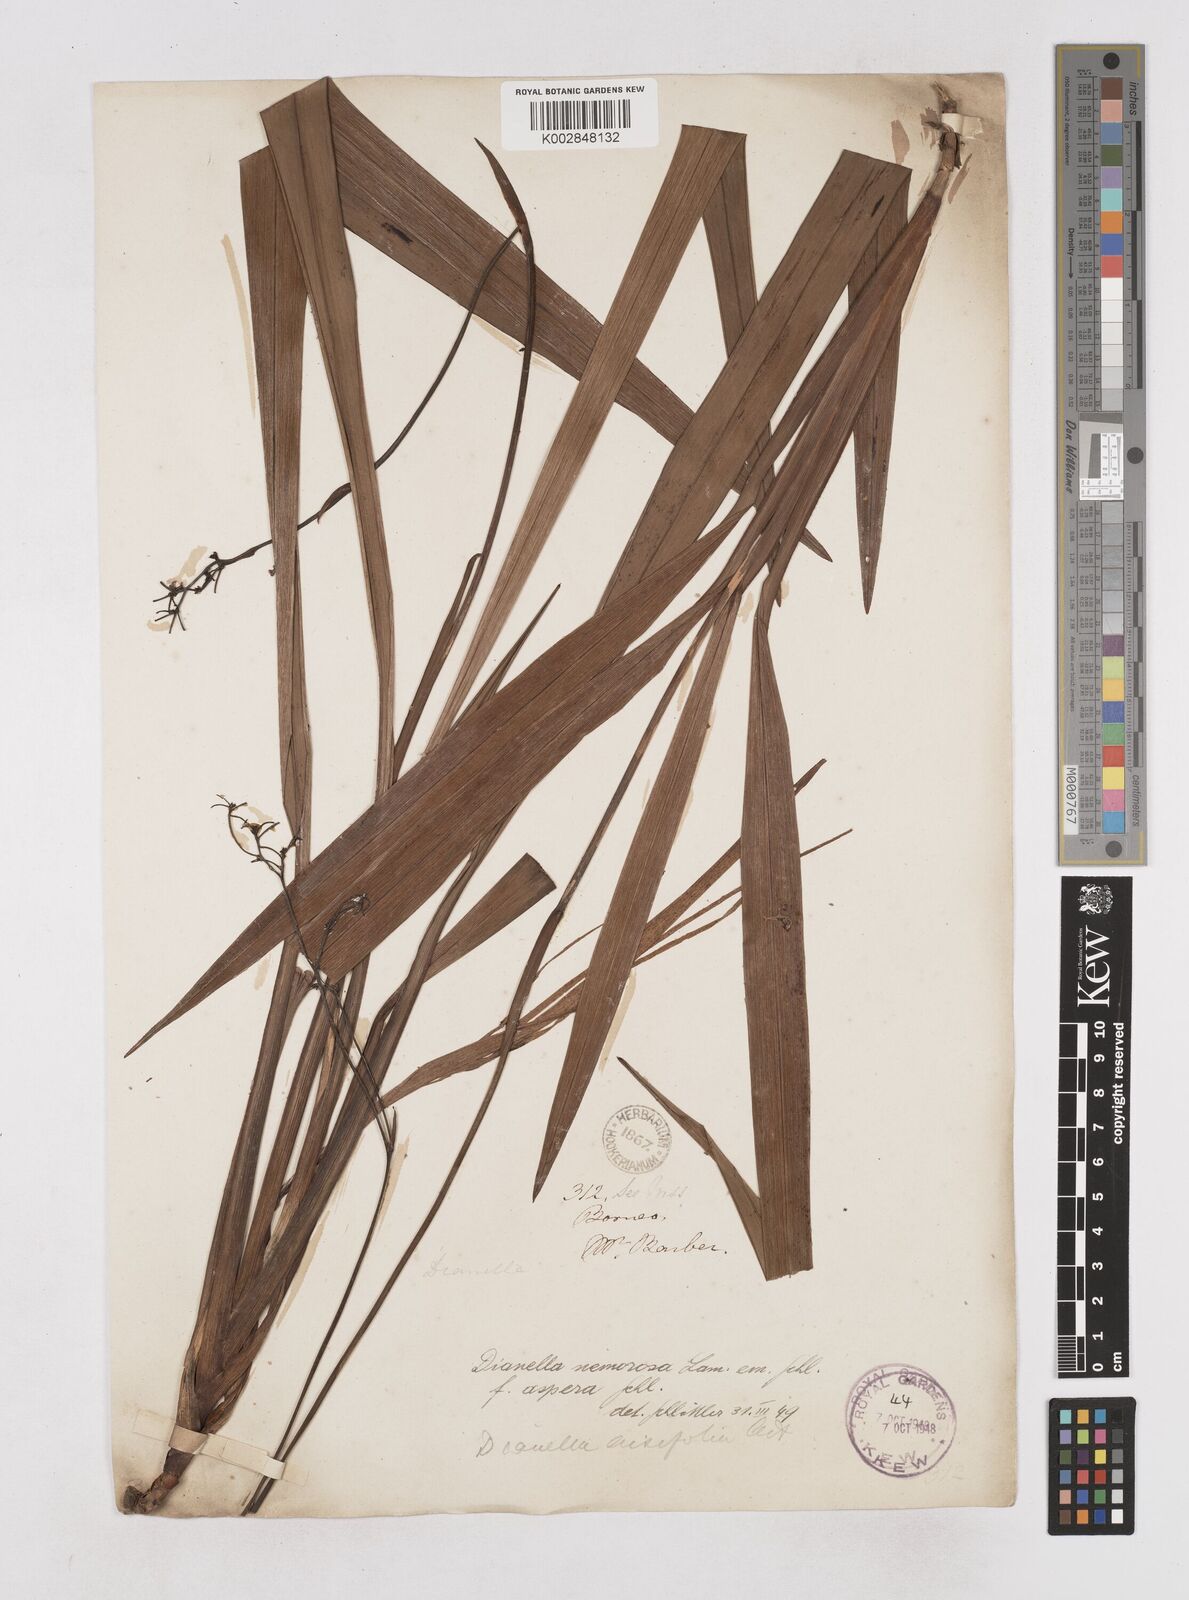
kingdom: Plantae
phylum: Tracheophyta
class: Liliopsida
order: Asparagales
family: Asphodelaceae
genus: Dianella
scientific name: Dianella ensifolia
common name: New zealand lilyplant
